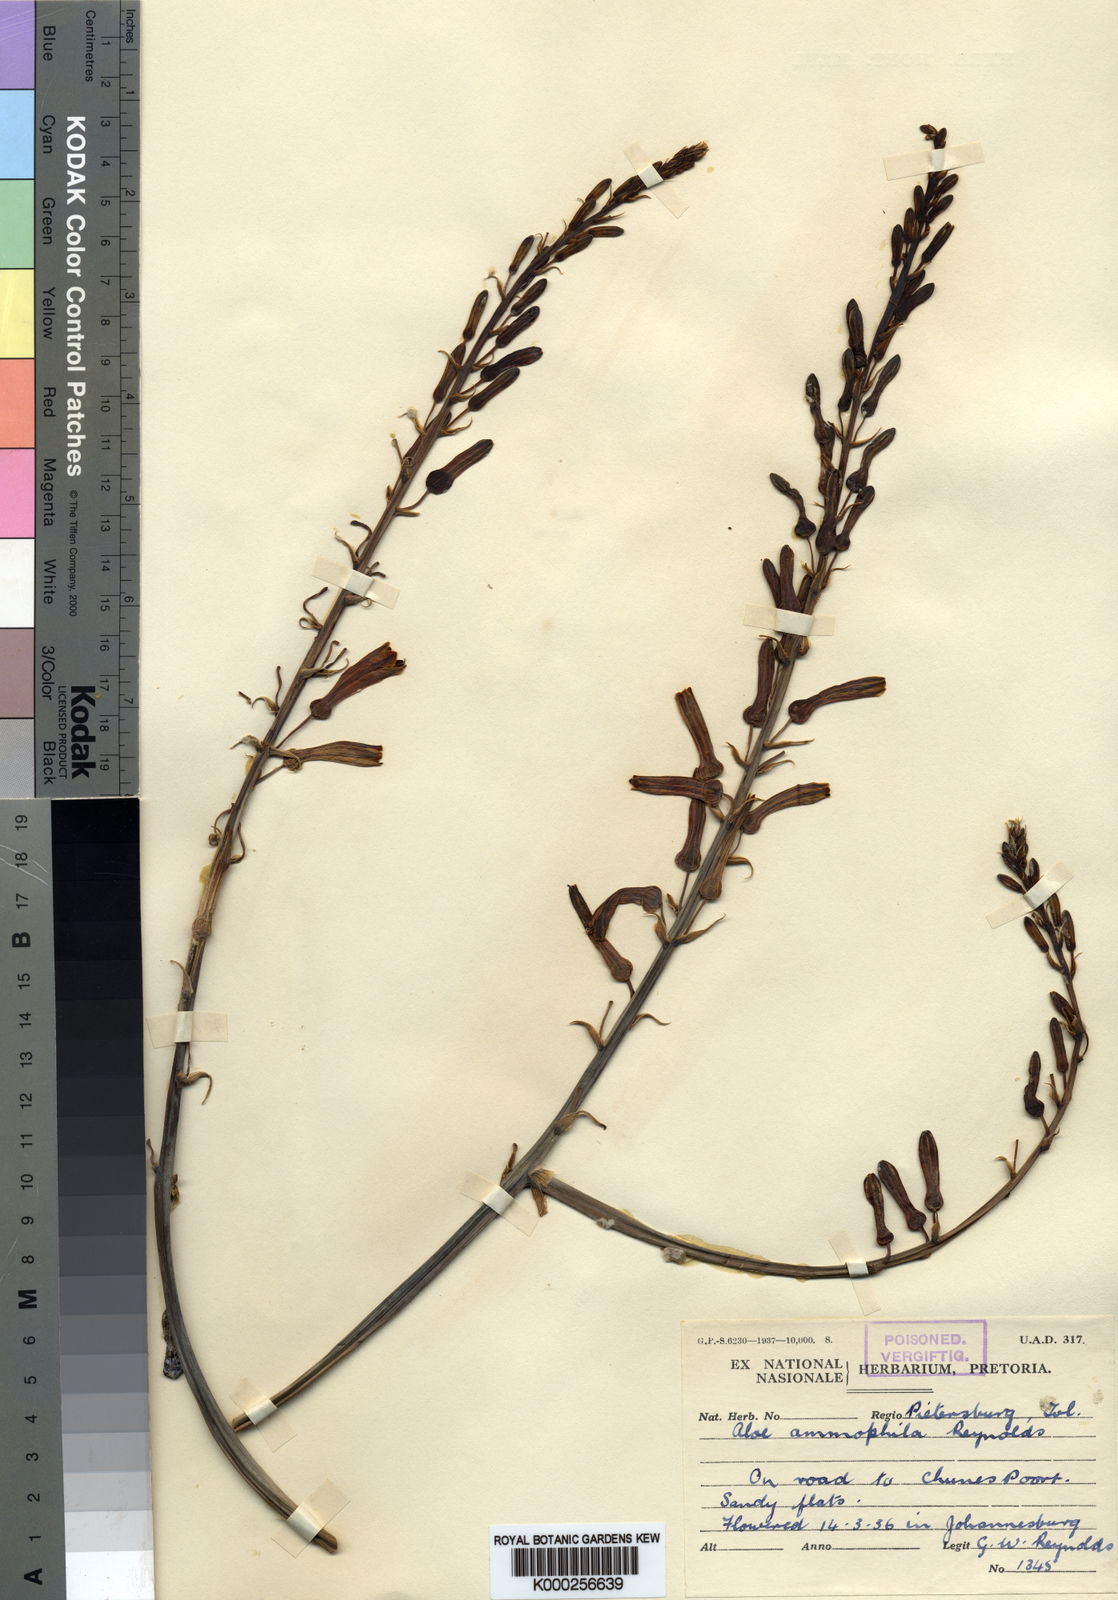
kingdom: Plantae
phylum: Tracheophyta
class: Liliopsida
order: Asparagales
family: Asphodelaceae
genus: Aloe
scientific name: Aloe ammophila
